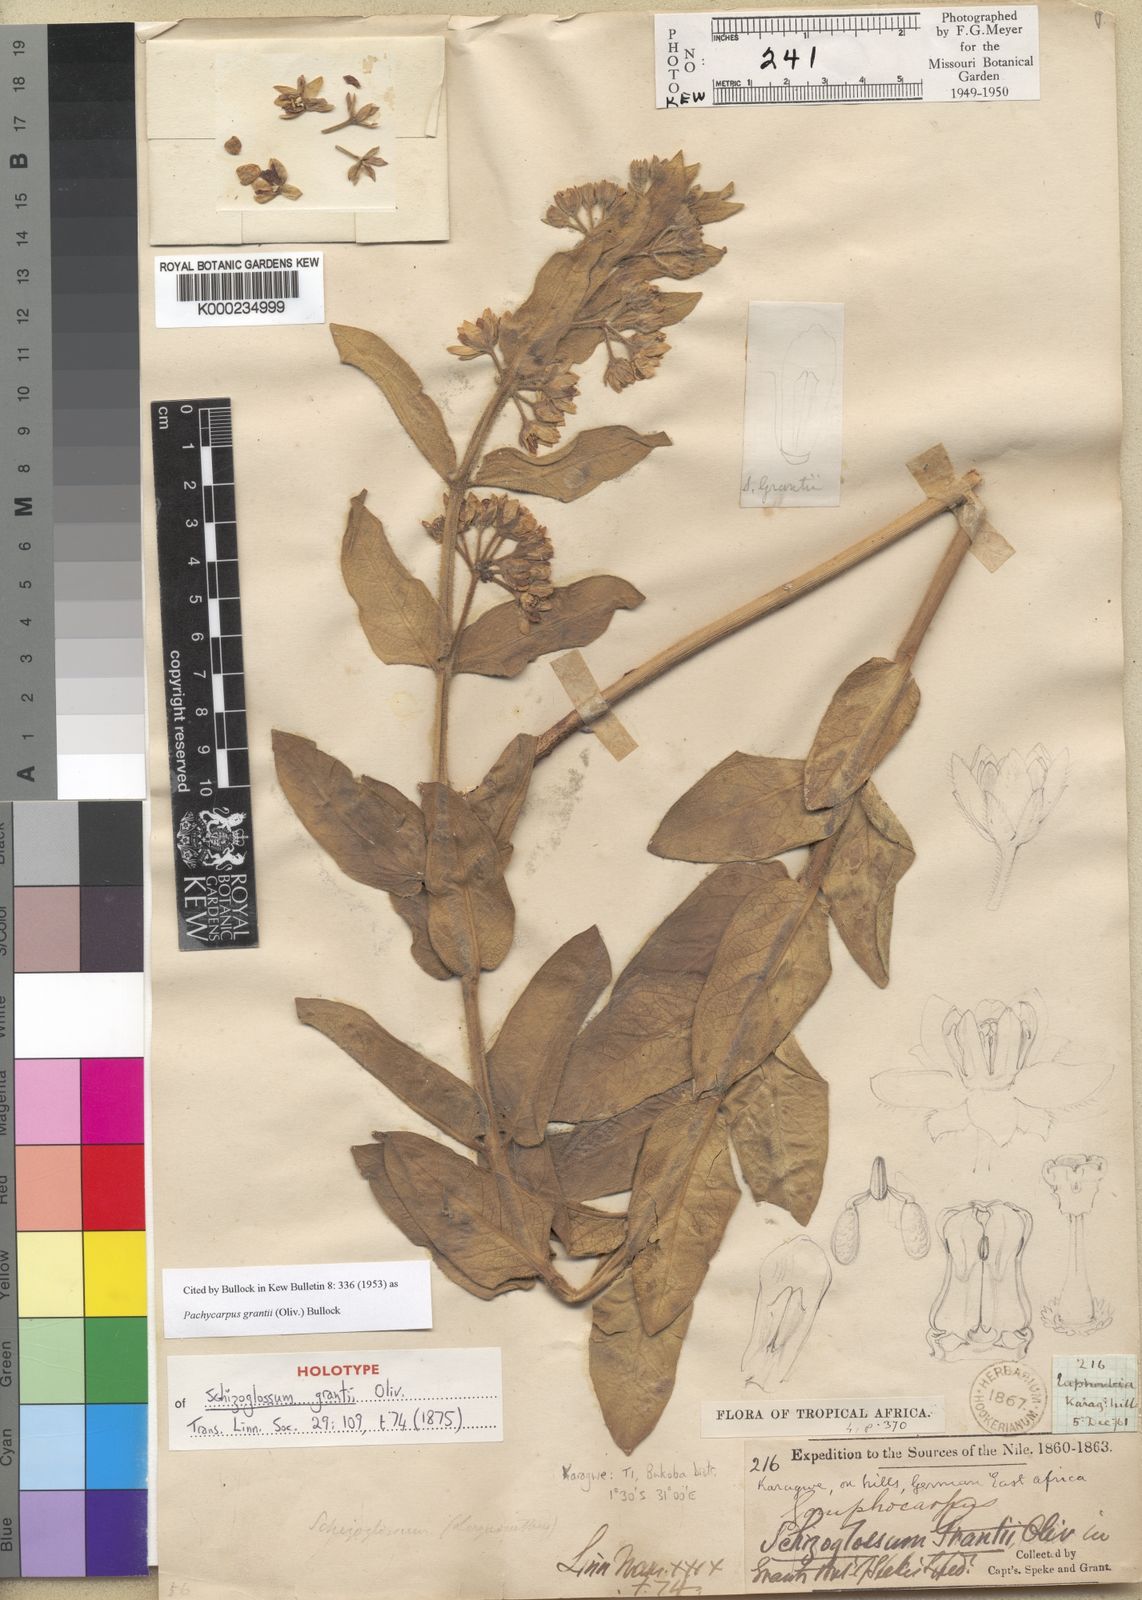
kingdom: Plantae
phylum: Tracheophyta
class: Magnoliopsida
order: Gentianales
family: Apocynaceae
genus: Pachycarpus
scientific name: Pachycarpus grantii
